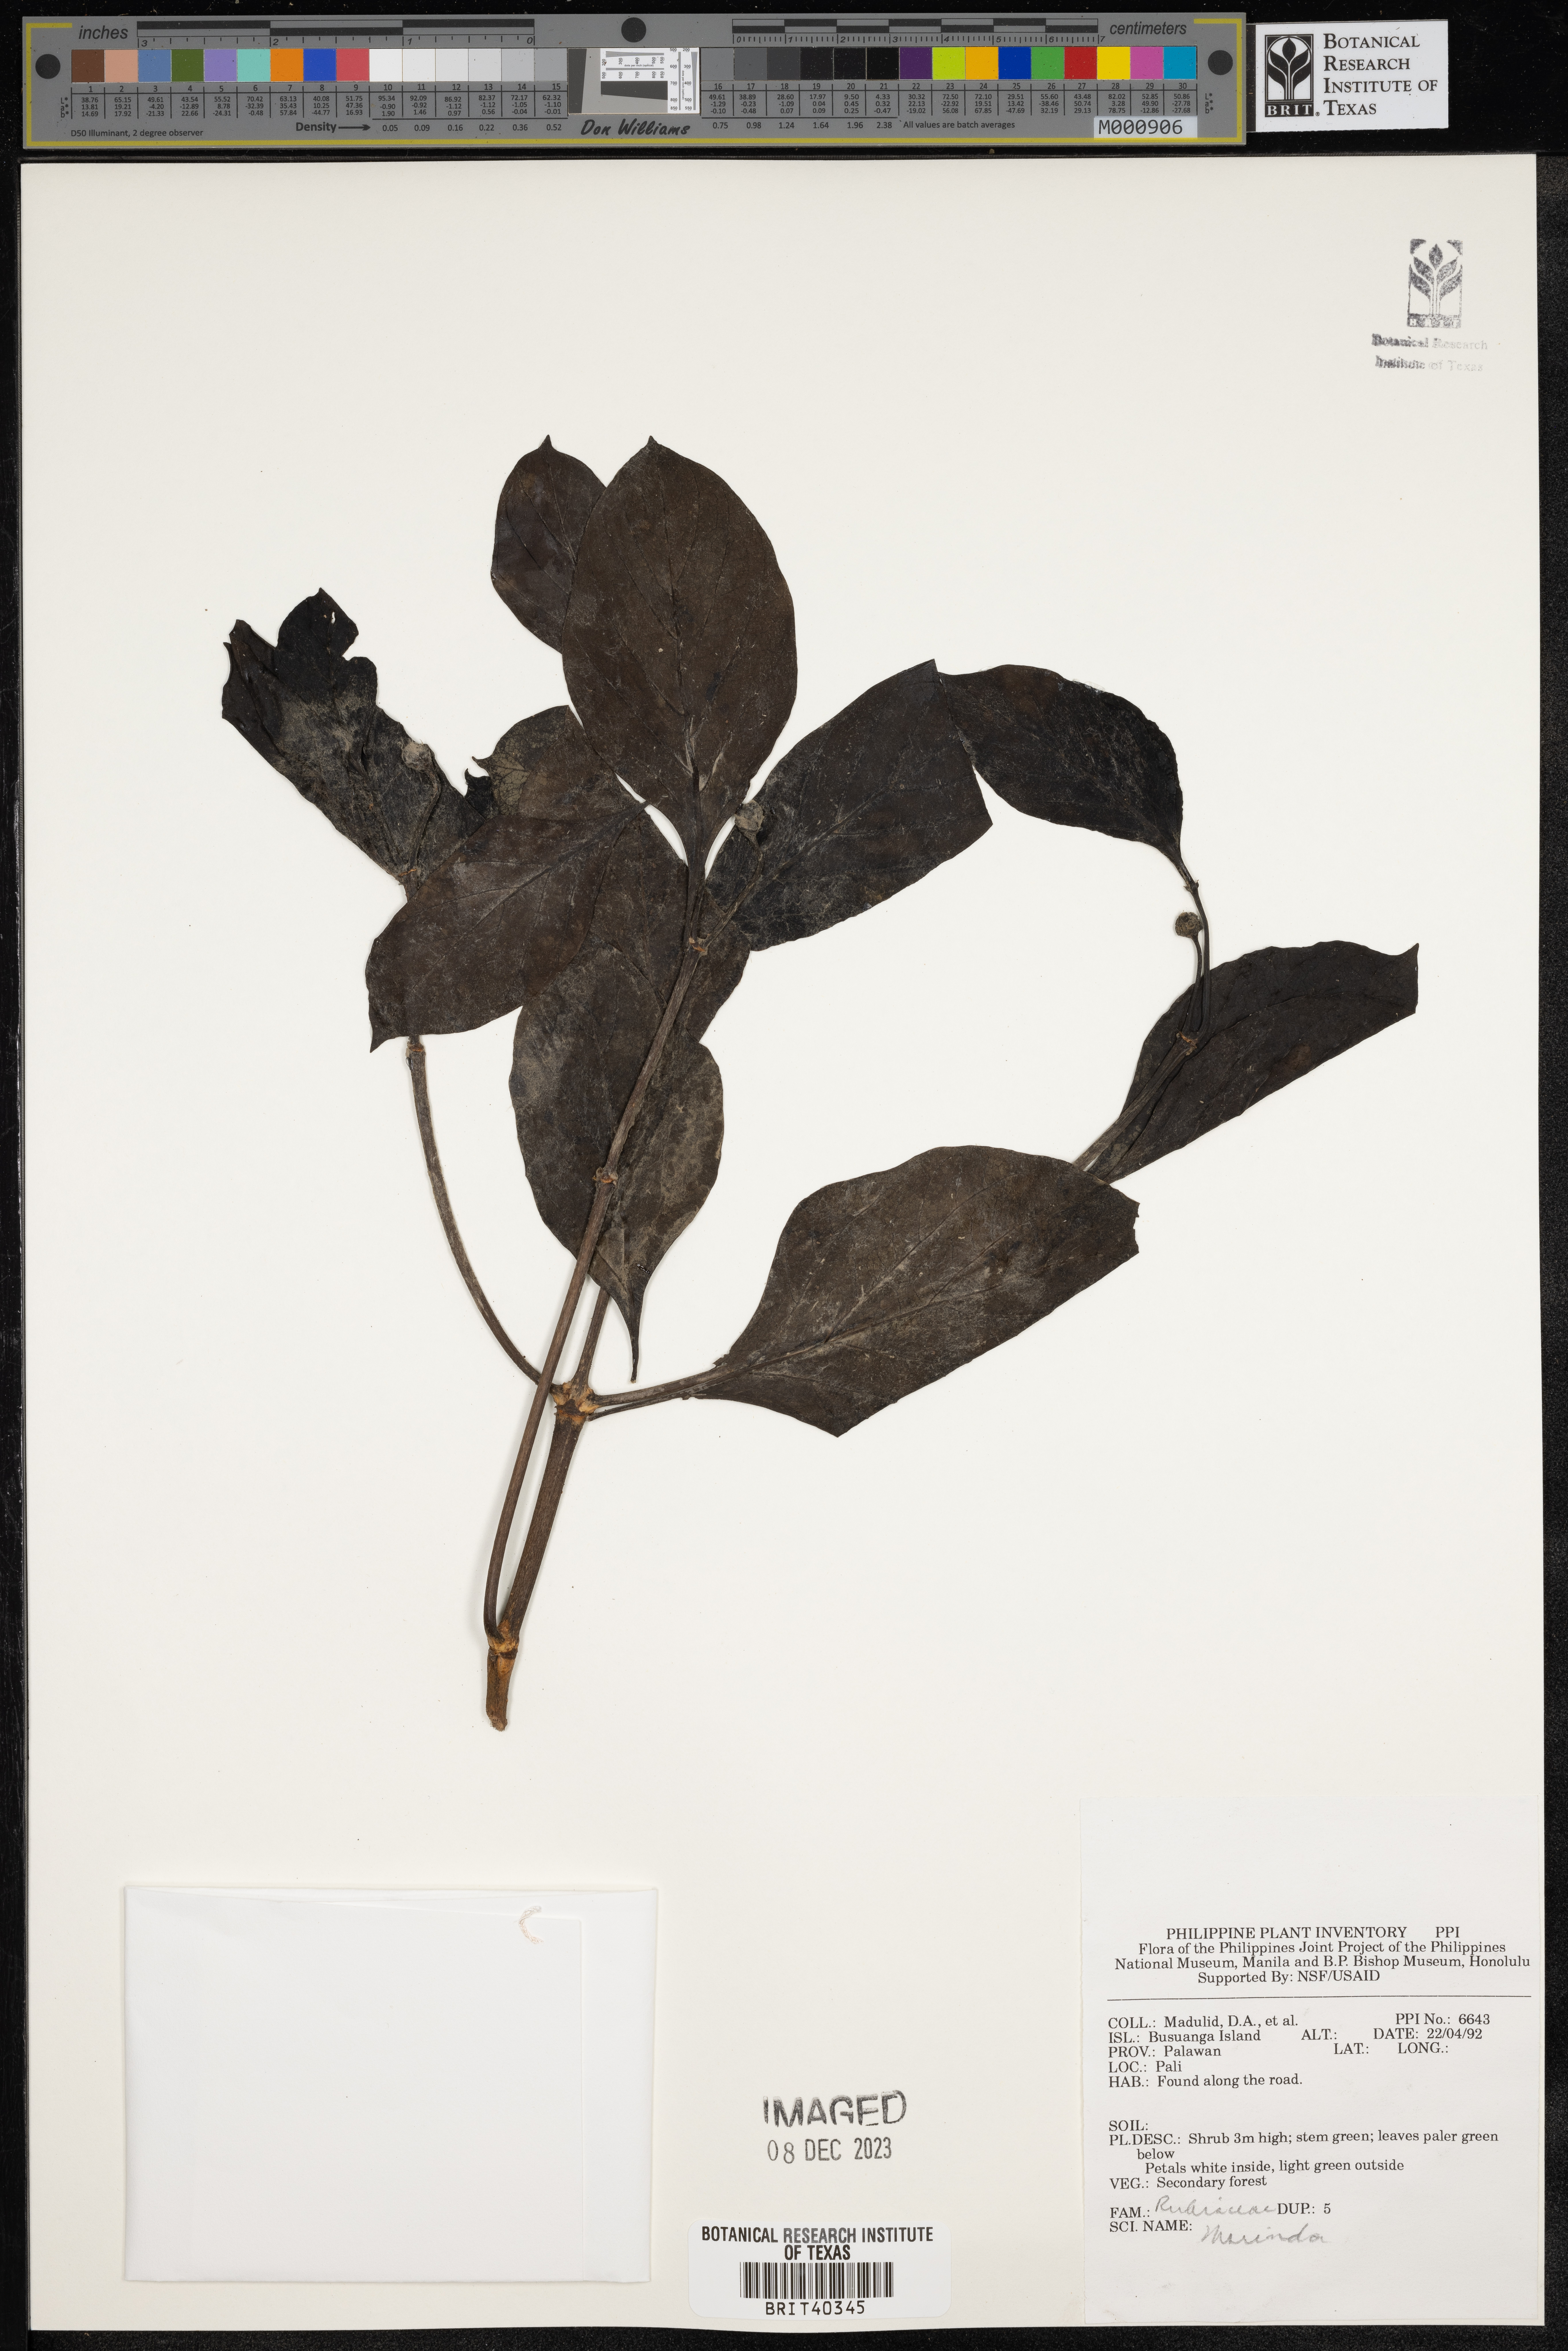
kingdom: Plantae
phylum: Tracheophyta
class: Magnoliopsida
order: Gentianales
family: Rubiaceae
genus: Morinda
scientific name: Morinda
